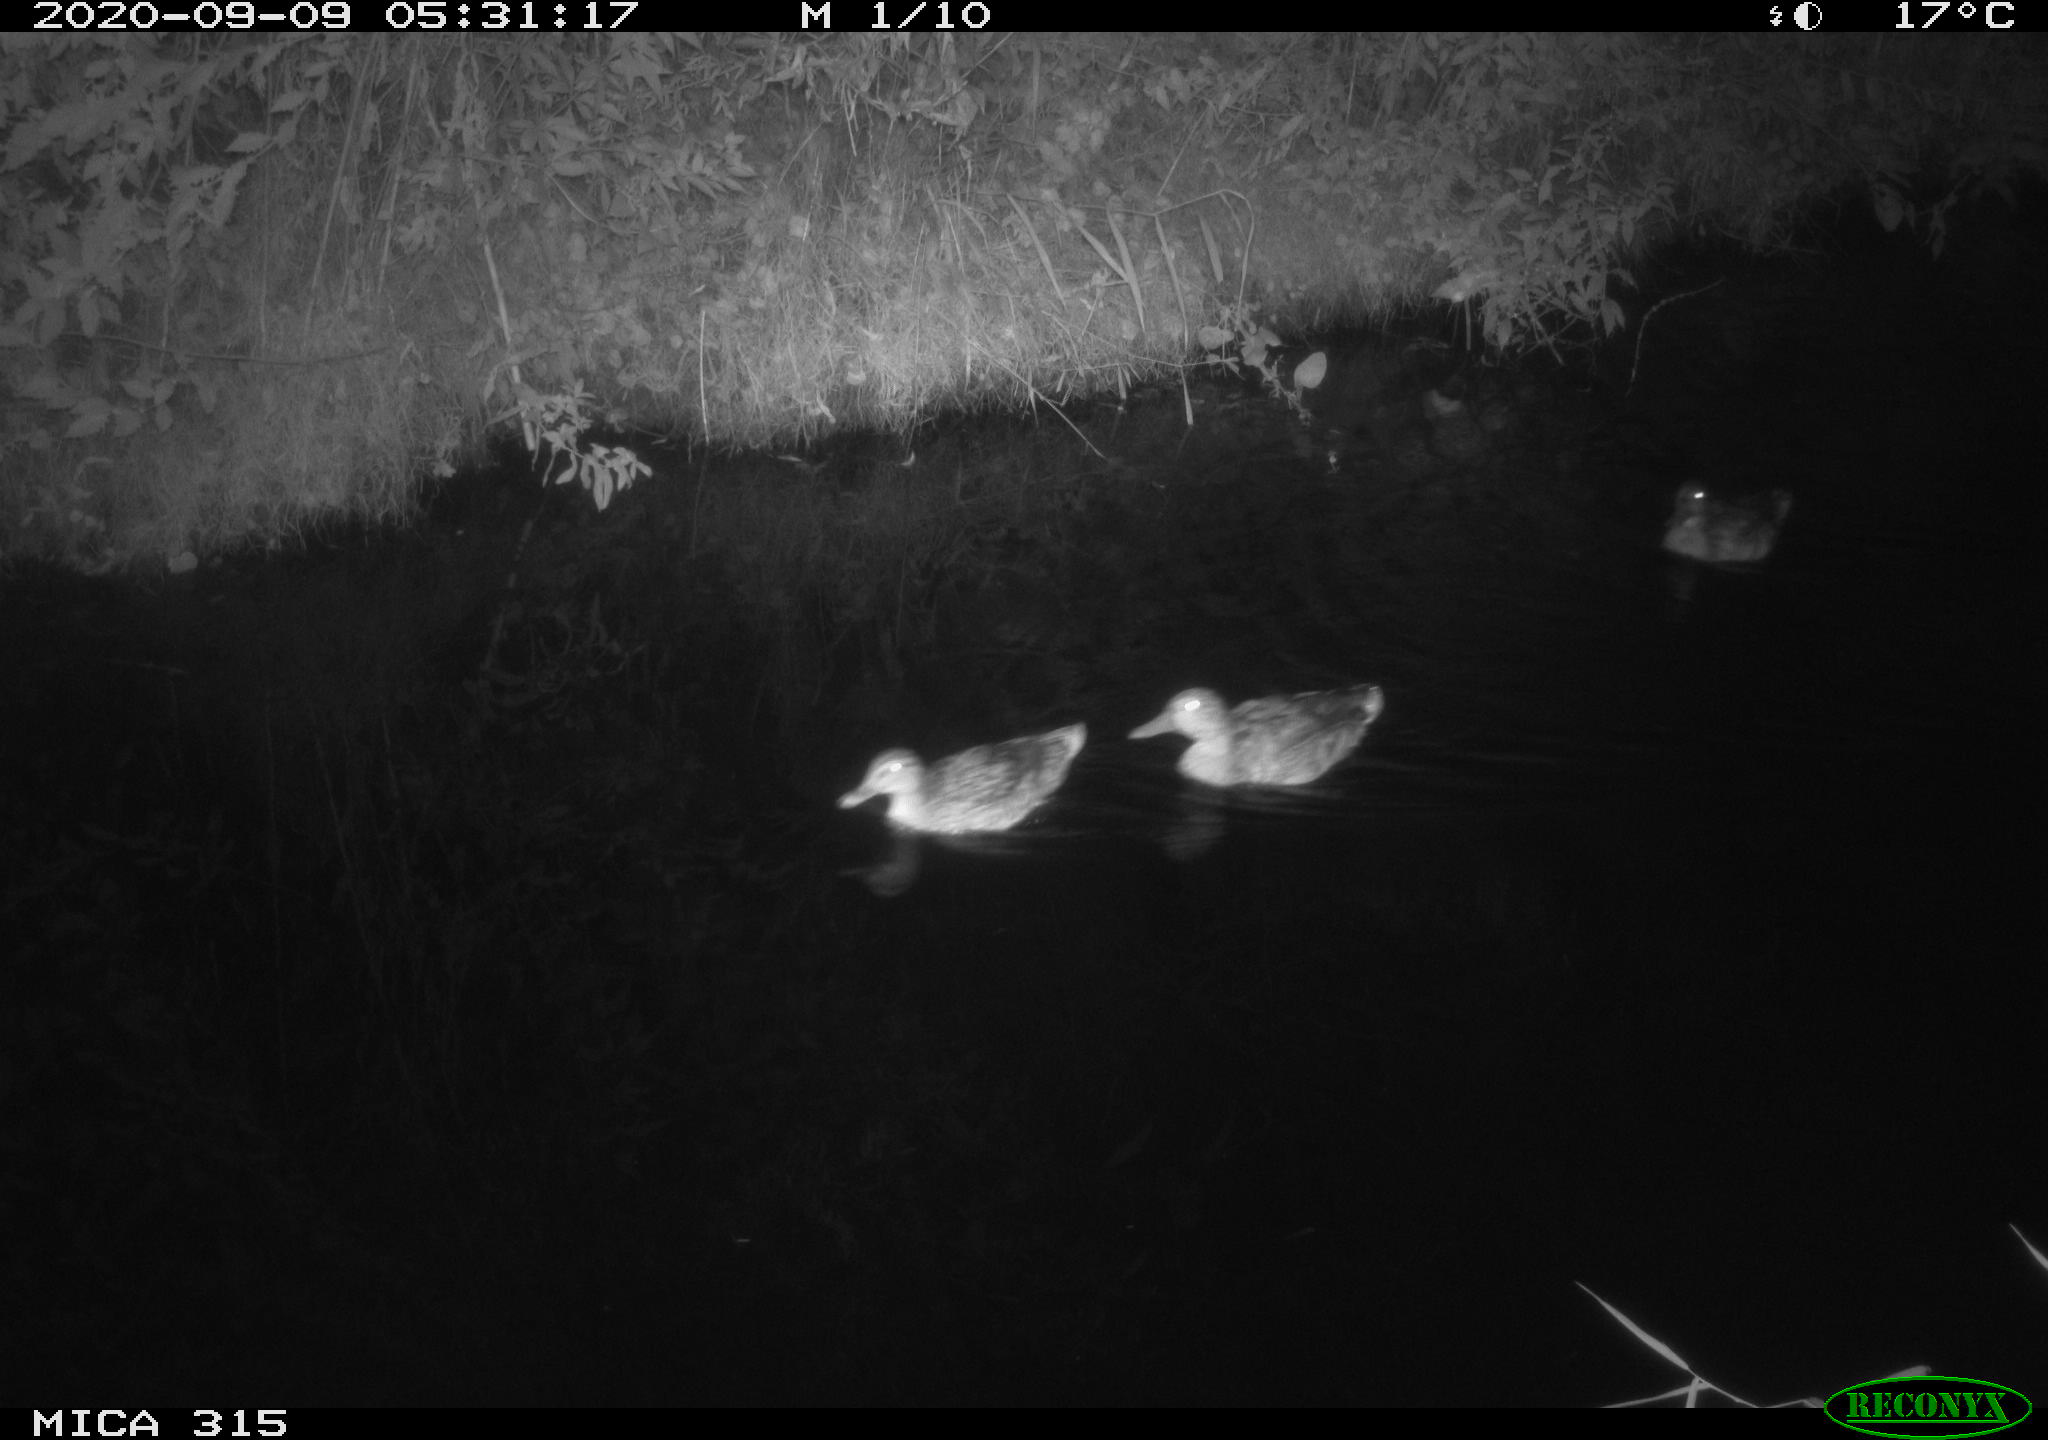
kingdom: Animalia
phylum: Chordata
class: Aves
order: Anseriformes
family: Anatidae
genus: Anas
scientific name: Anas platyrhynchos
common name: Mallard
